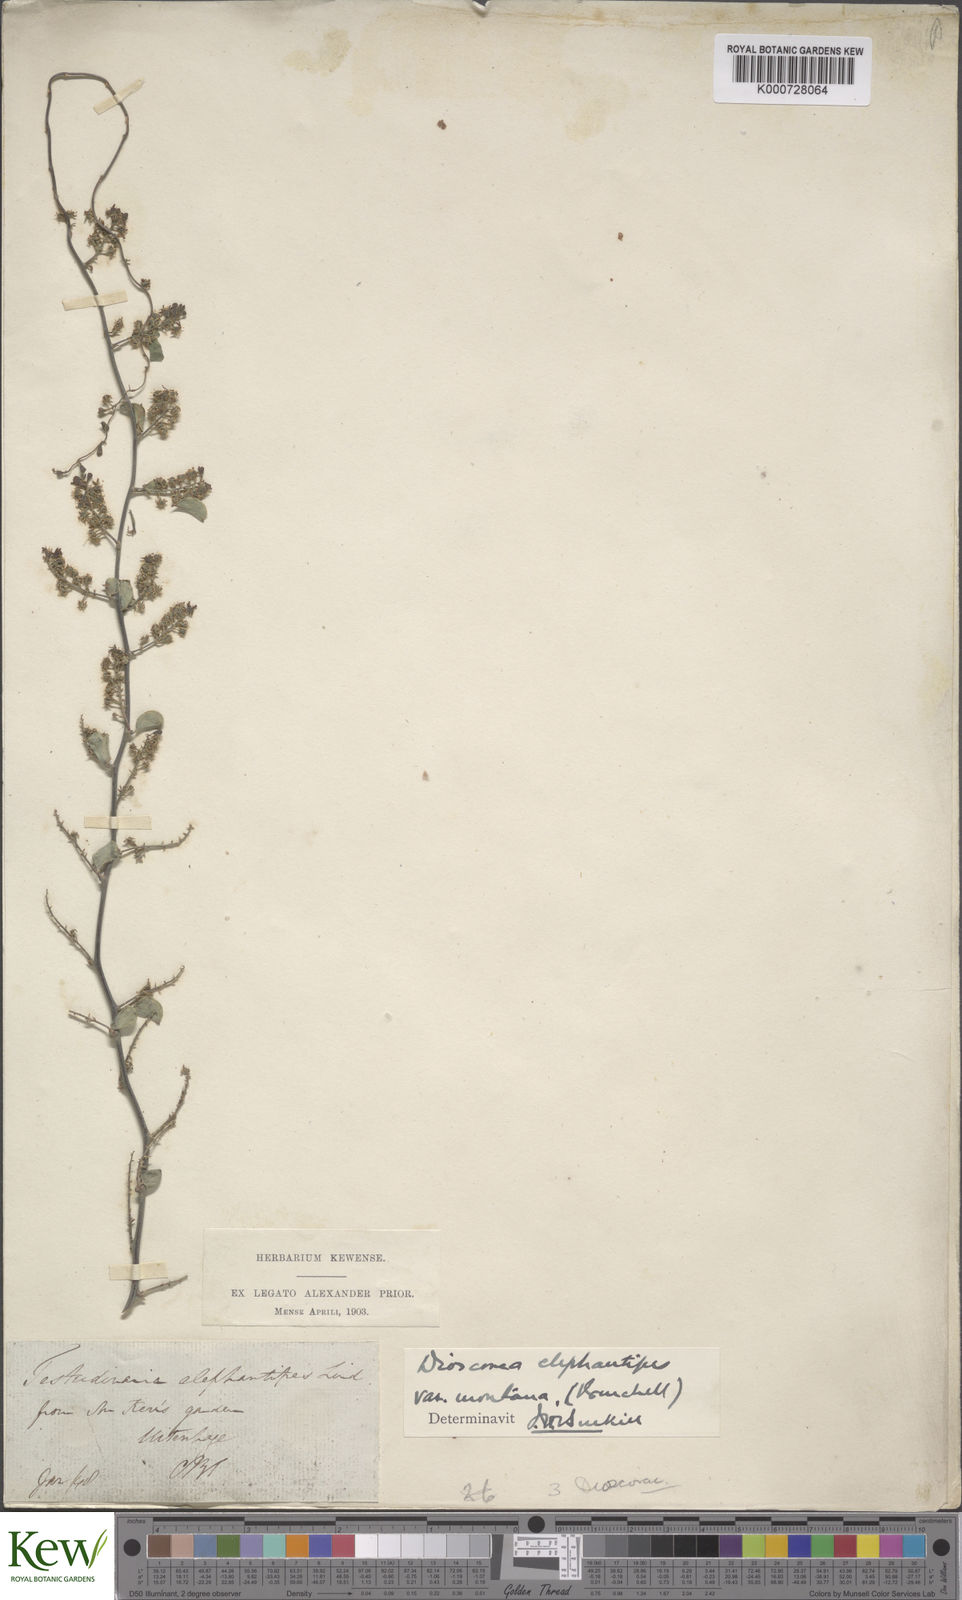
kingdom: Plantae
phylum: Tracheophyta
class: Liliopsida
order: Dioscoreales
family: Dioscoreaceae
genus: Dioscorea
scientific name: Dioscorea
